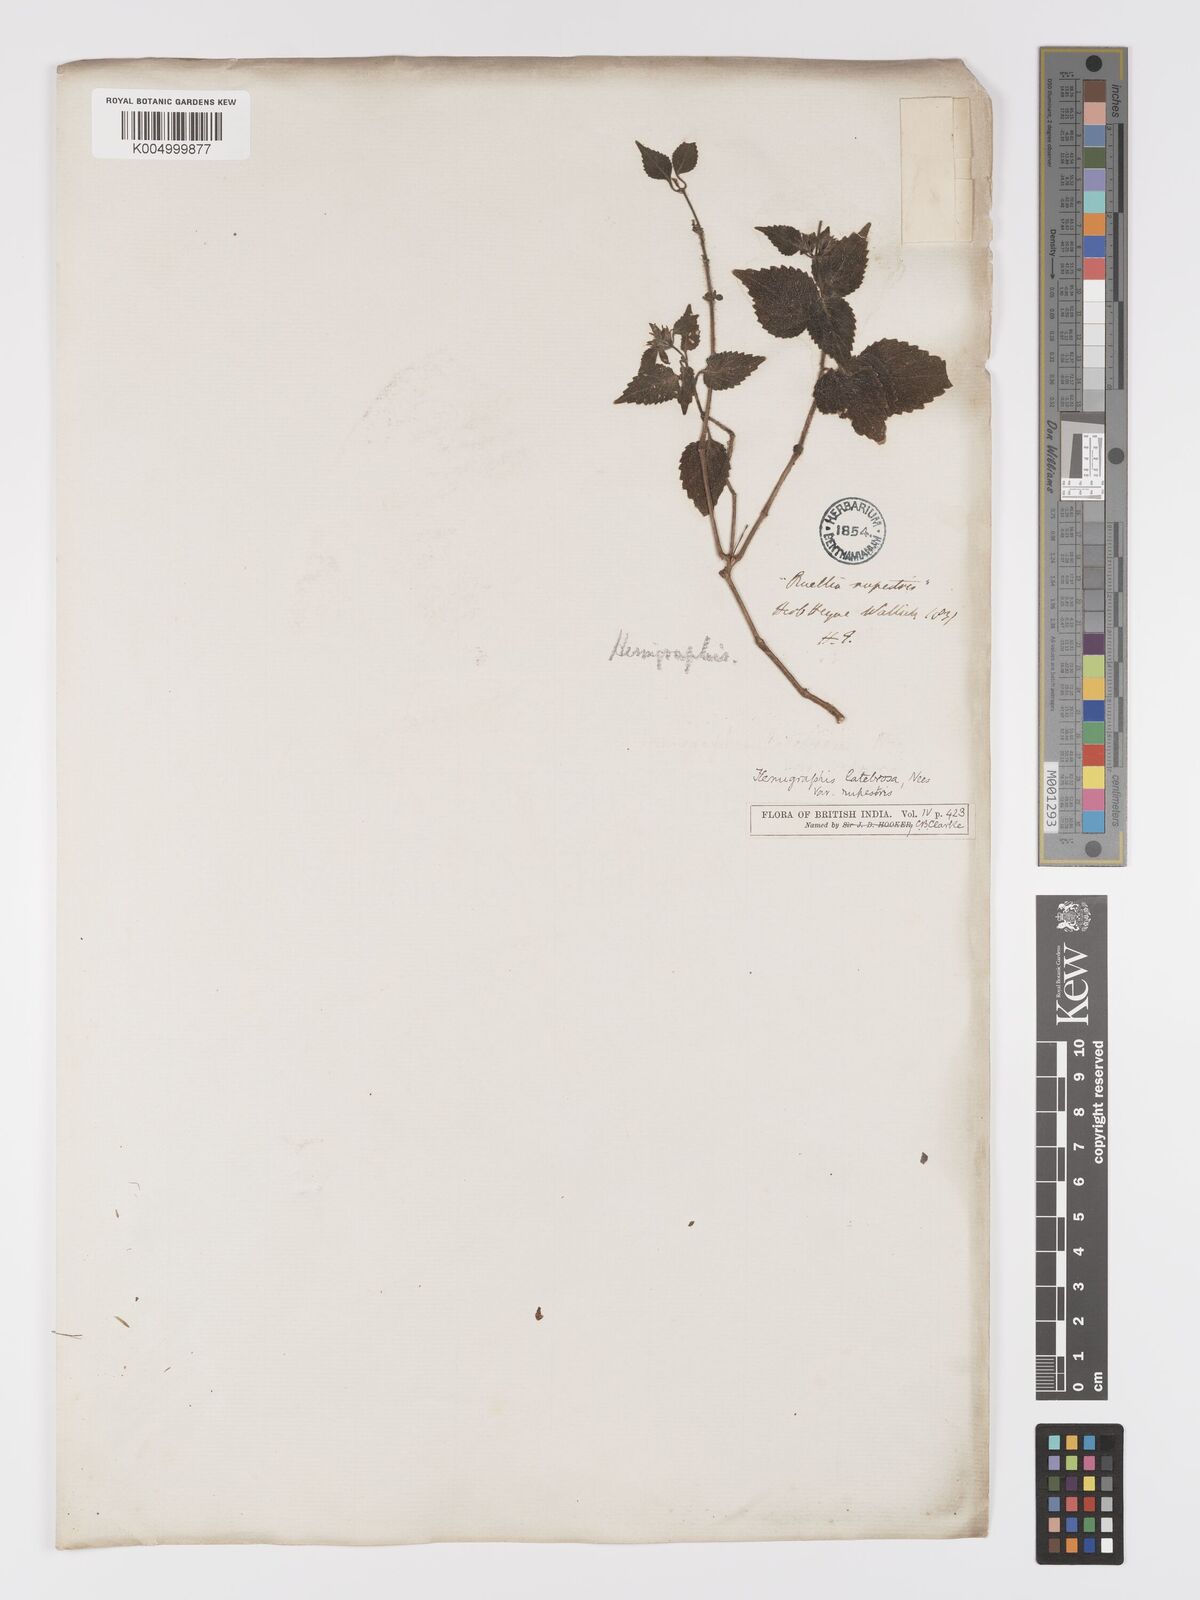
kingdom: Plantae
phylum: Tracheophyta
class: Magnoliopsida
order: Lamiales
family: Acanthaceae
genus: Strobilanthes
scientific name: Strobilanthes pavala
